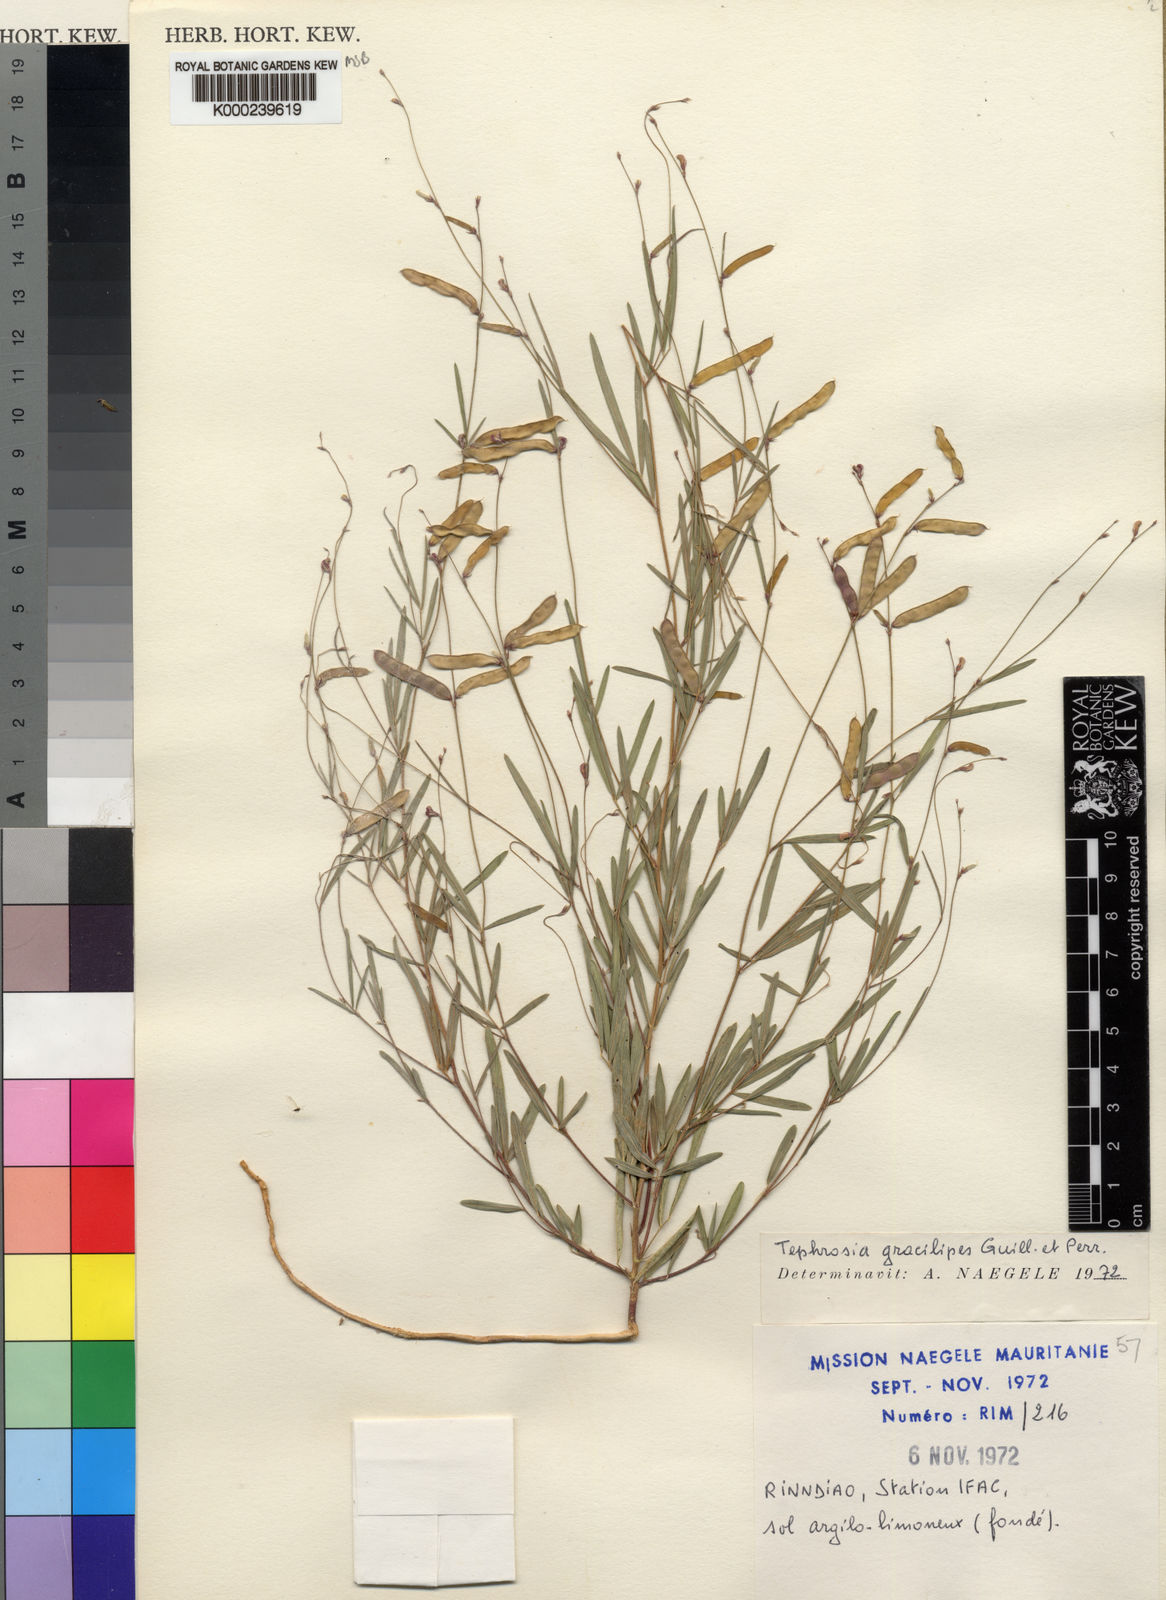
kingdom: Plantae
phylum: Tracheophyta
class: Magnoliopsida
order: Fabales
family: Fabaceae
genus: Tephrosia
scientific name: Tephrosia gracilipes
